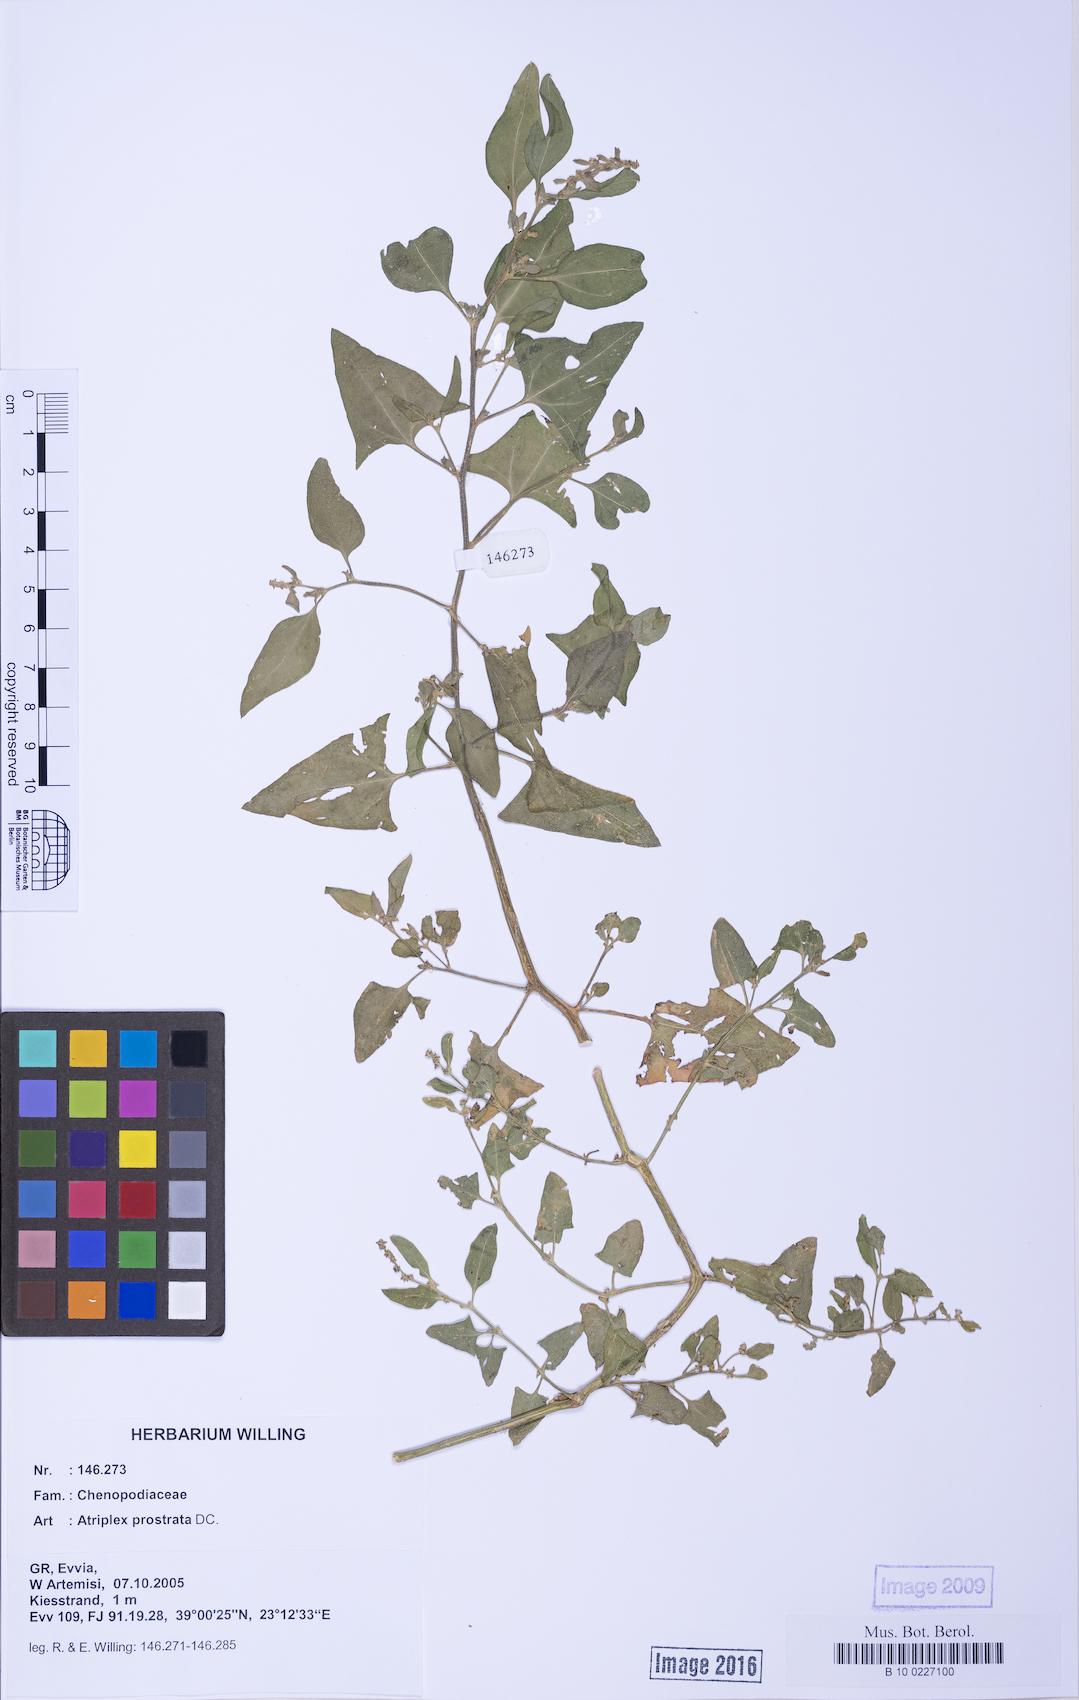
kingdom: Plantae
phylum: Tracheophyta
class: Magnoliopsida
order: Caryophyllales
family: Amaranthaceae
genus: Atriplex
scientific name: Atriplex prostrata
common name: Spear-leaved orache
